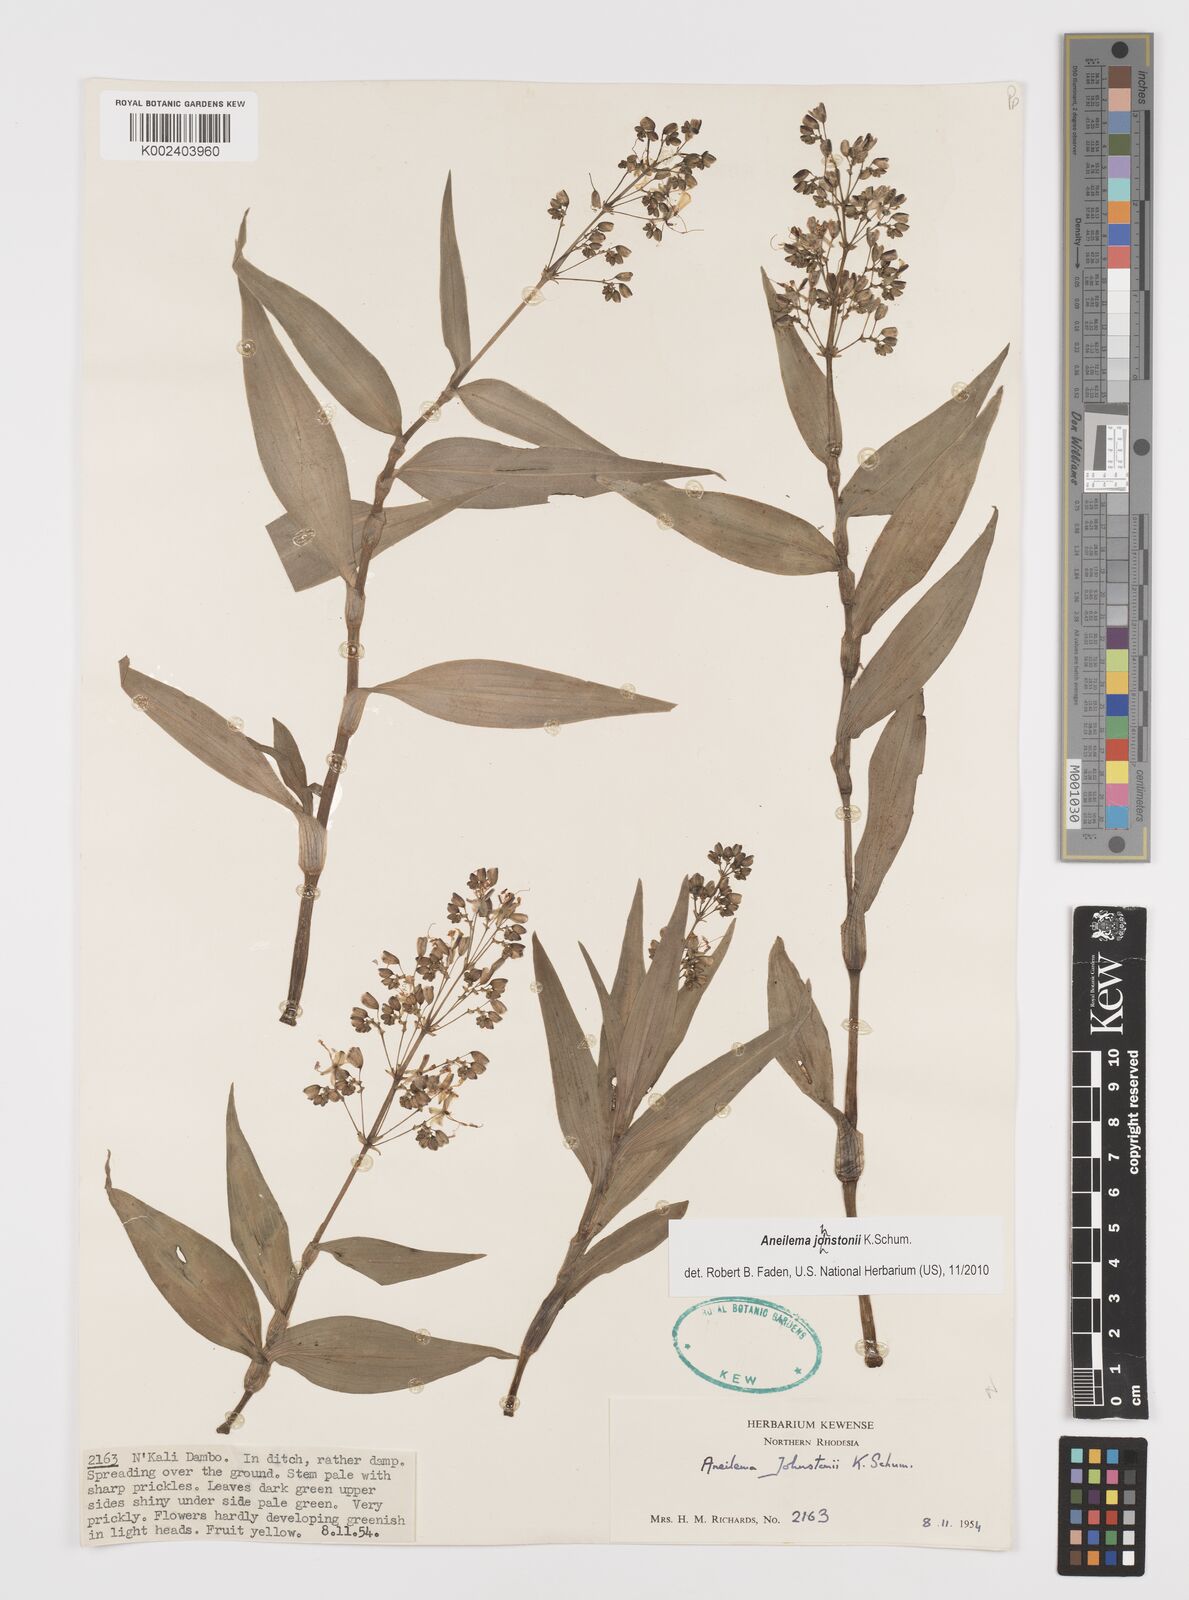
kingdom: Plantae
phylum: Tracheophyta
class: Liliopsida
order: Commelinales
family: Commelinaceae
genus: Aneilema
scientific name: Aneilema johnstonii
